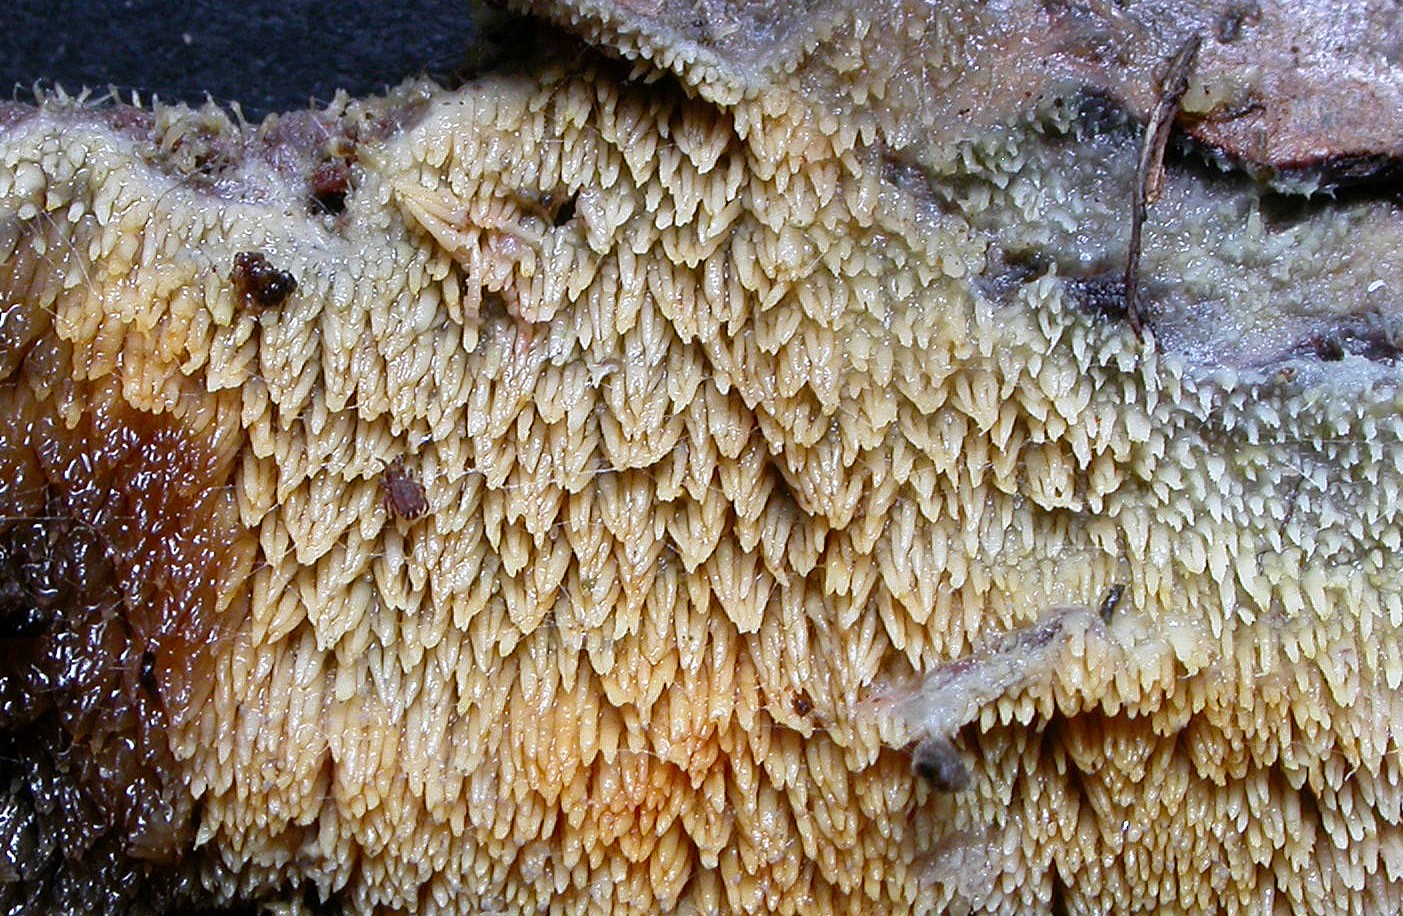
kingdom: Fungi
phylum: Basidiomycota
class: Agaricomycetes
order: Polyporales
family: Meruliaceae
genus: Mycoacia
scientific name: Mycoacia uda
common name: citrongul vokspig
